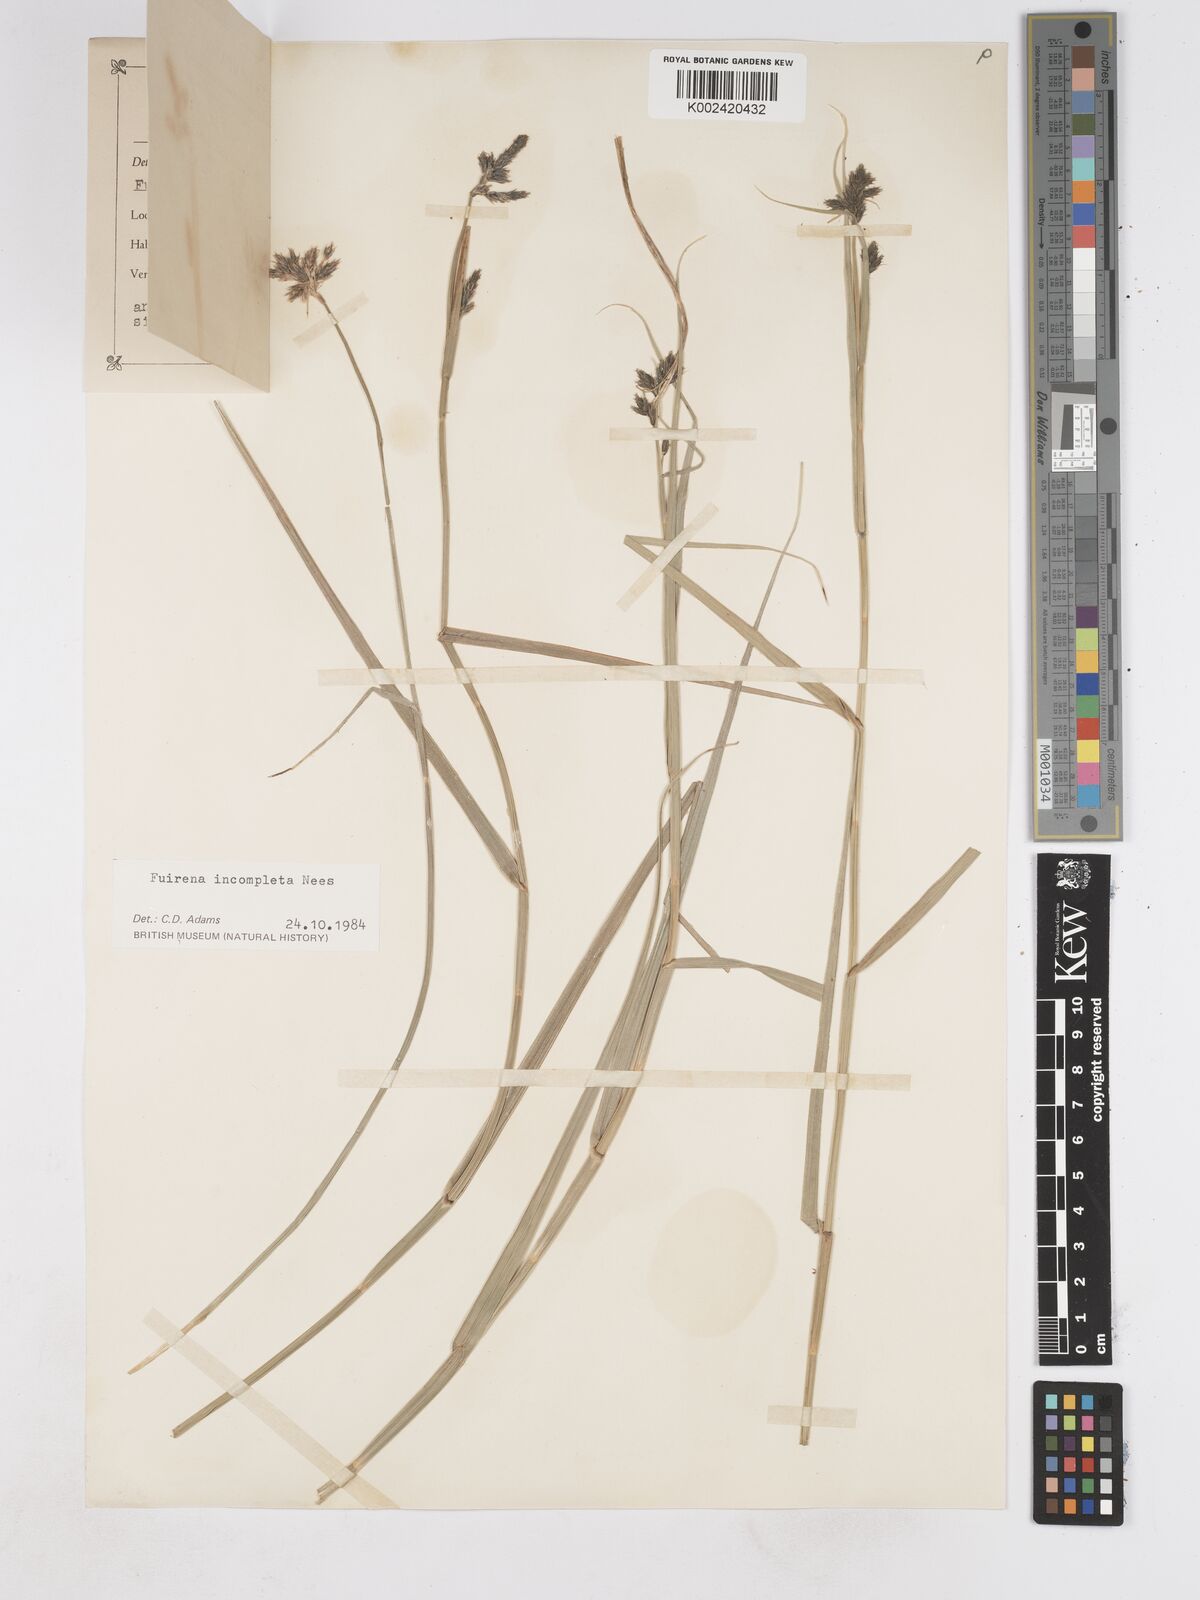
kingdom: Plantae
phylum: Tracheophyta
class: Liliopsida
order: Poales
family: Cyperaceae
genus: Fuirena
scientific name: Fuirena incompleta
